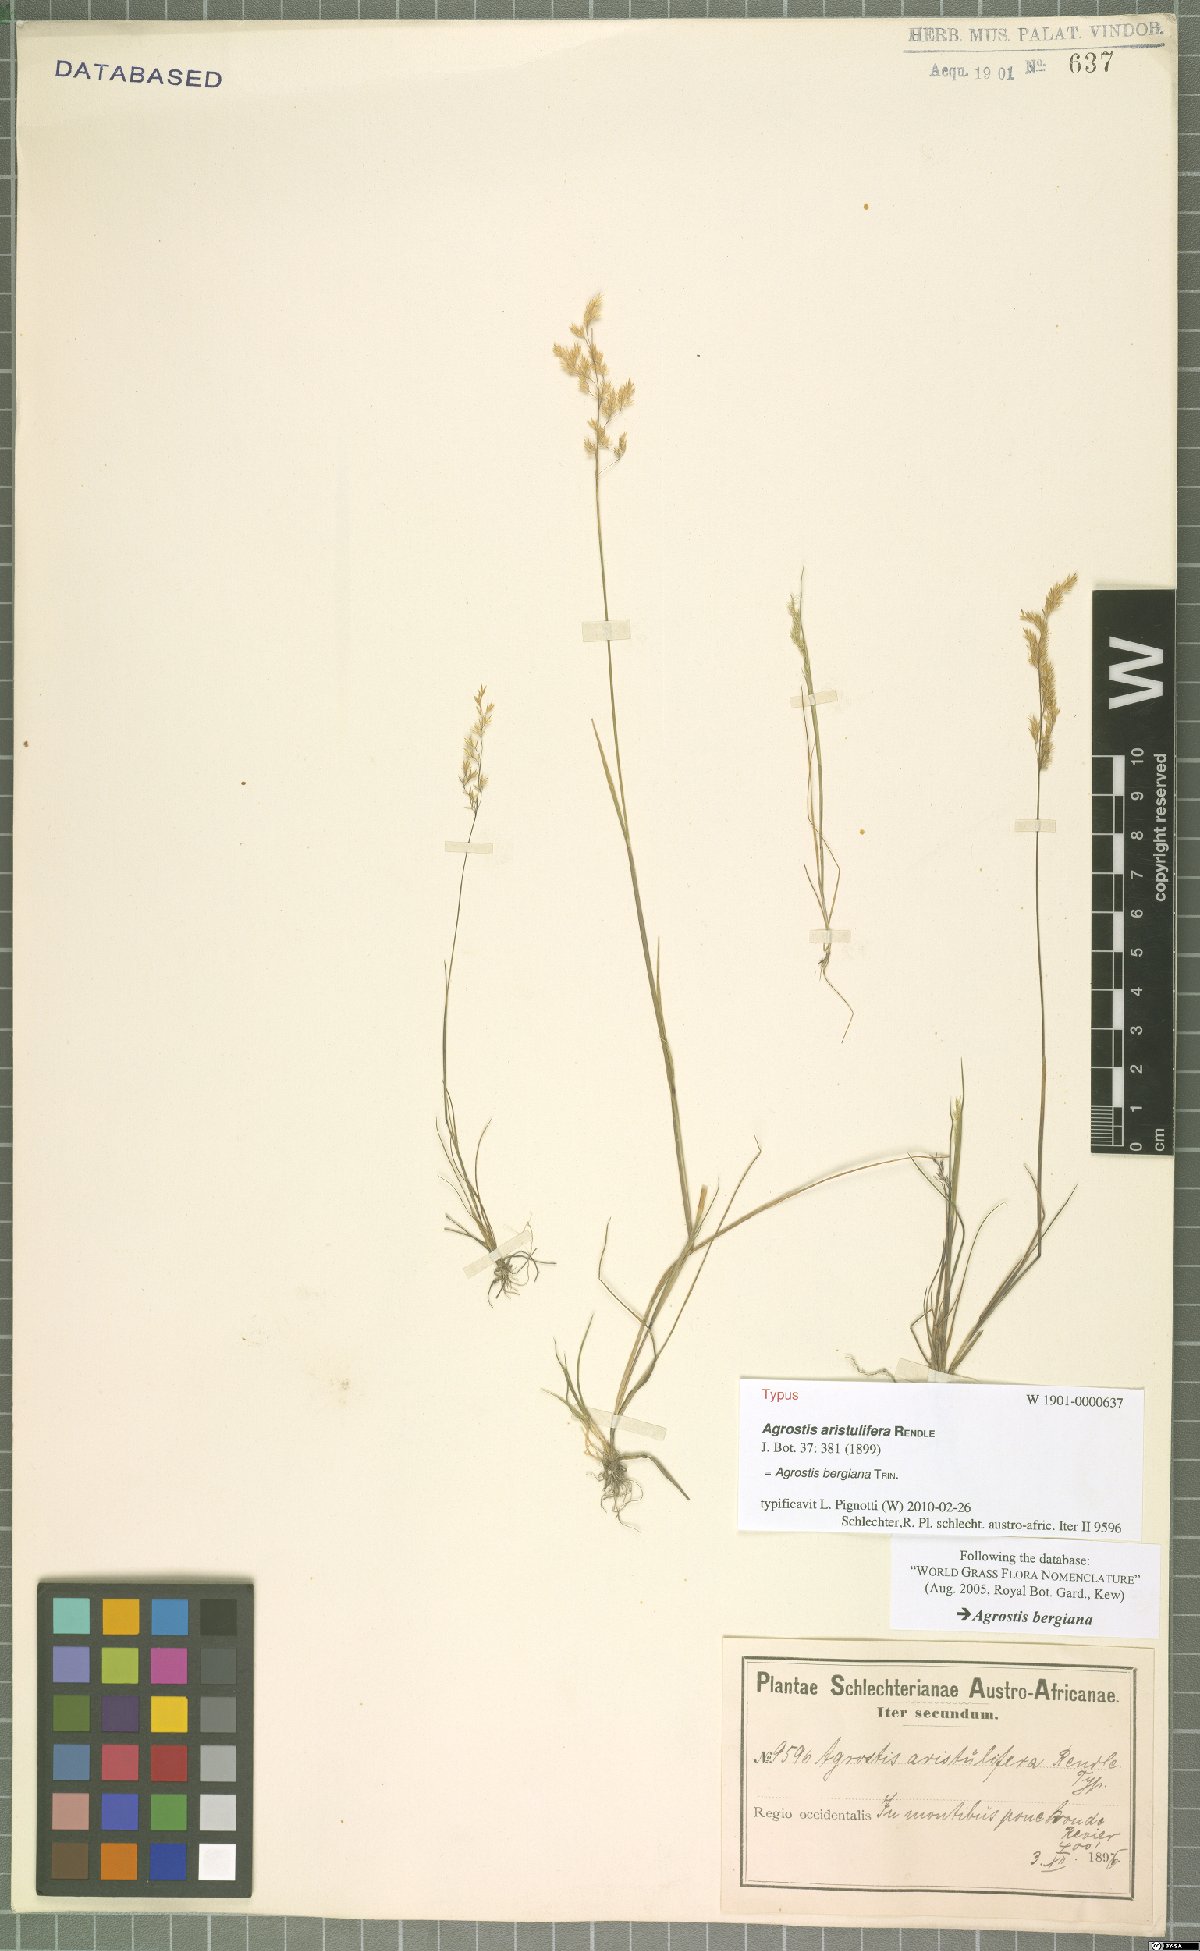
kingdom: Plantae
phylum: Tracheophyta
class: Liliopsida
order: Poales
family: Poaceae
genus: Agrostis
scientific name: Agrostis bergiana
